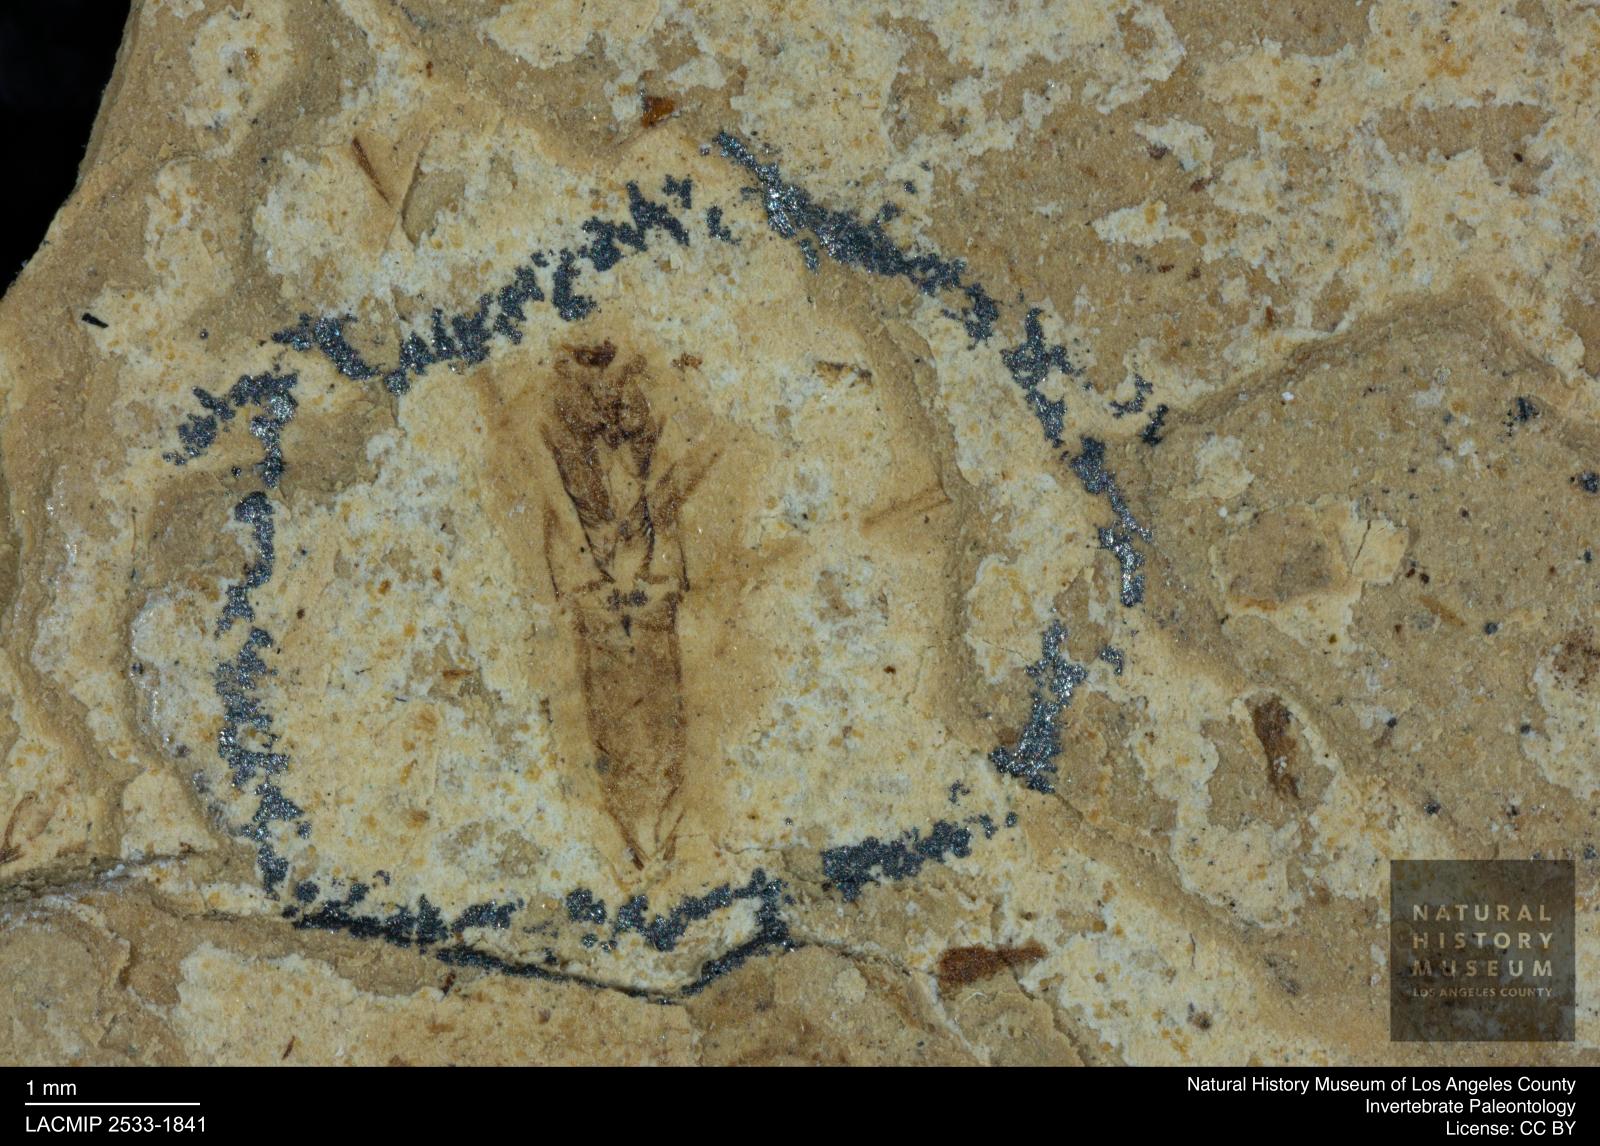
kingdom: Animalia
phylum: Arthropoda
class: Insecta
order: Hemiptera
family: Notonectidae
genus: Notonecta
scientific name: Notonecta
